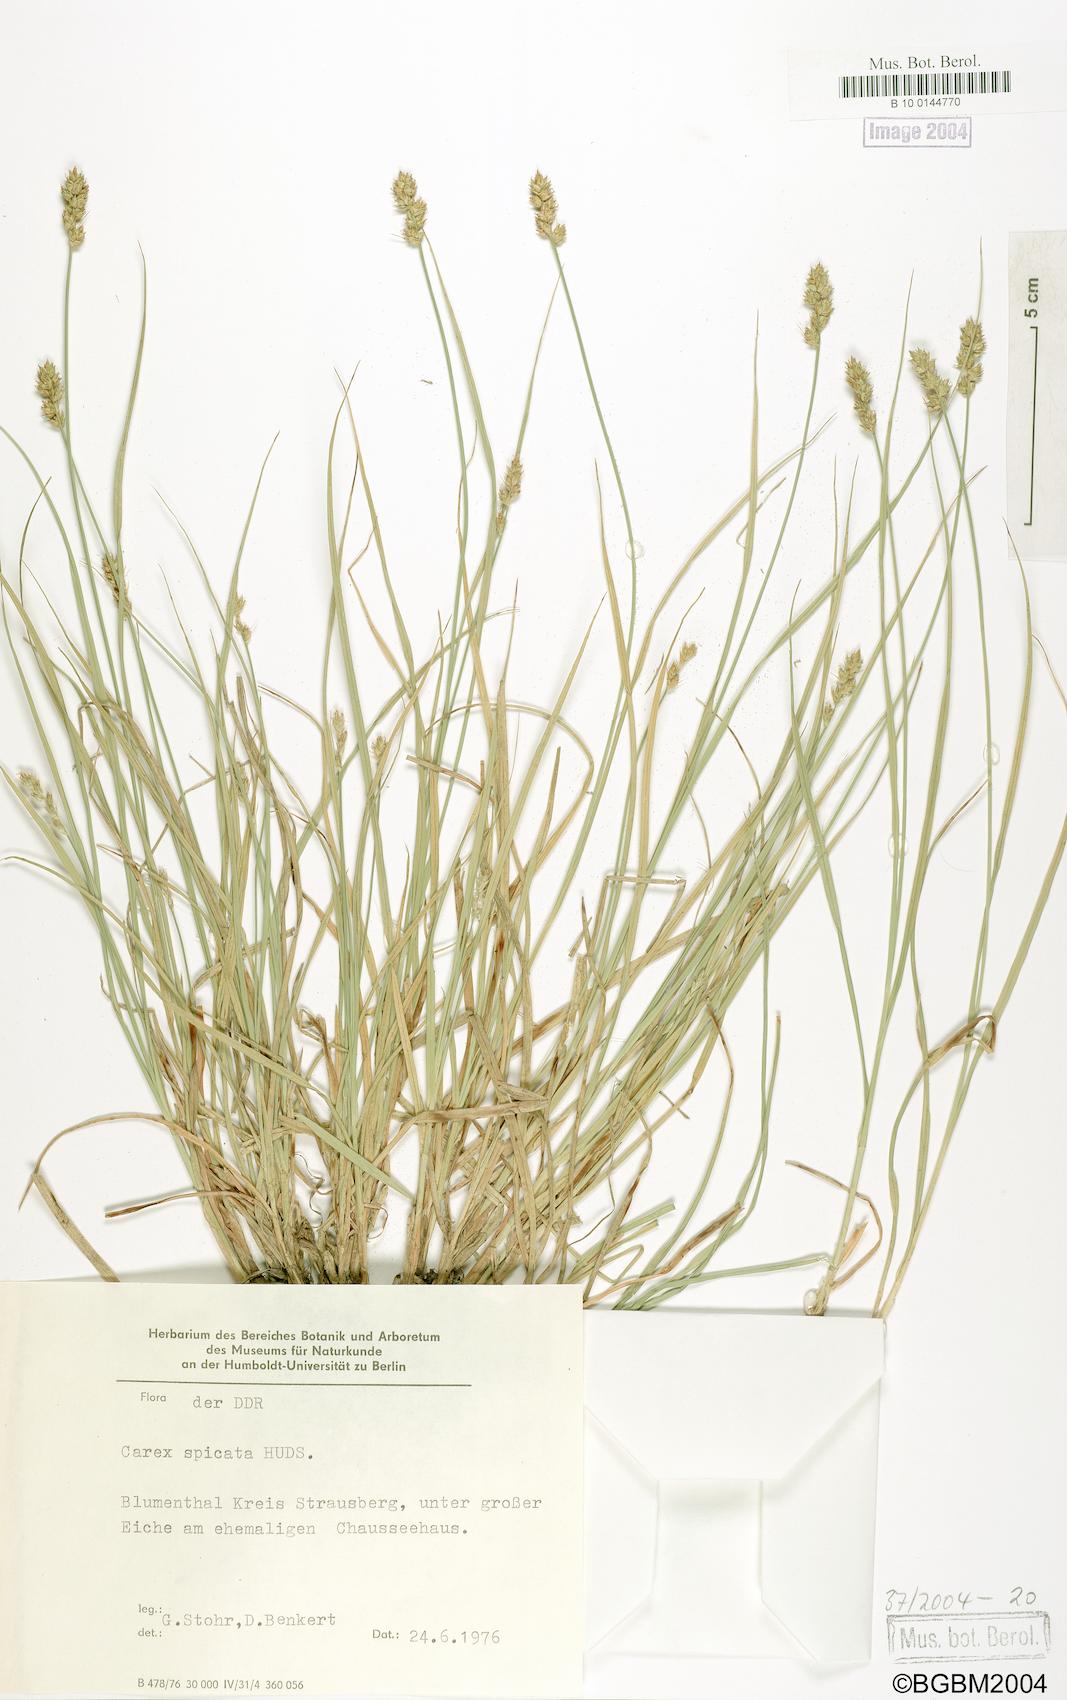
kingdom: Plantae
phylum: Tracheophyta
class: Liliopsida
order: Poales
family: Cyperaceae
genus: Carex
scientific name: Carex spicata
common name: Spiked sedge
